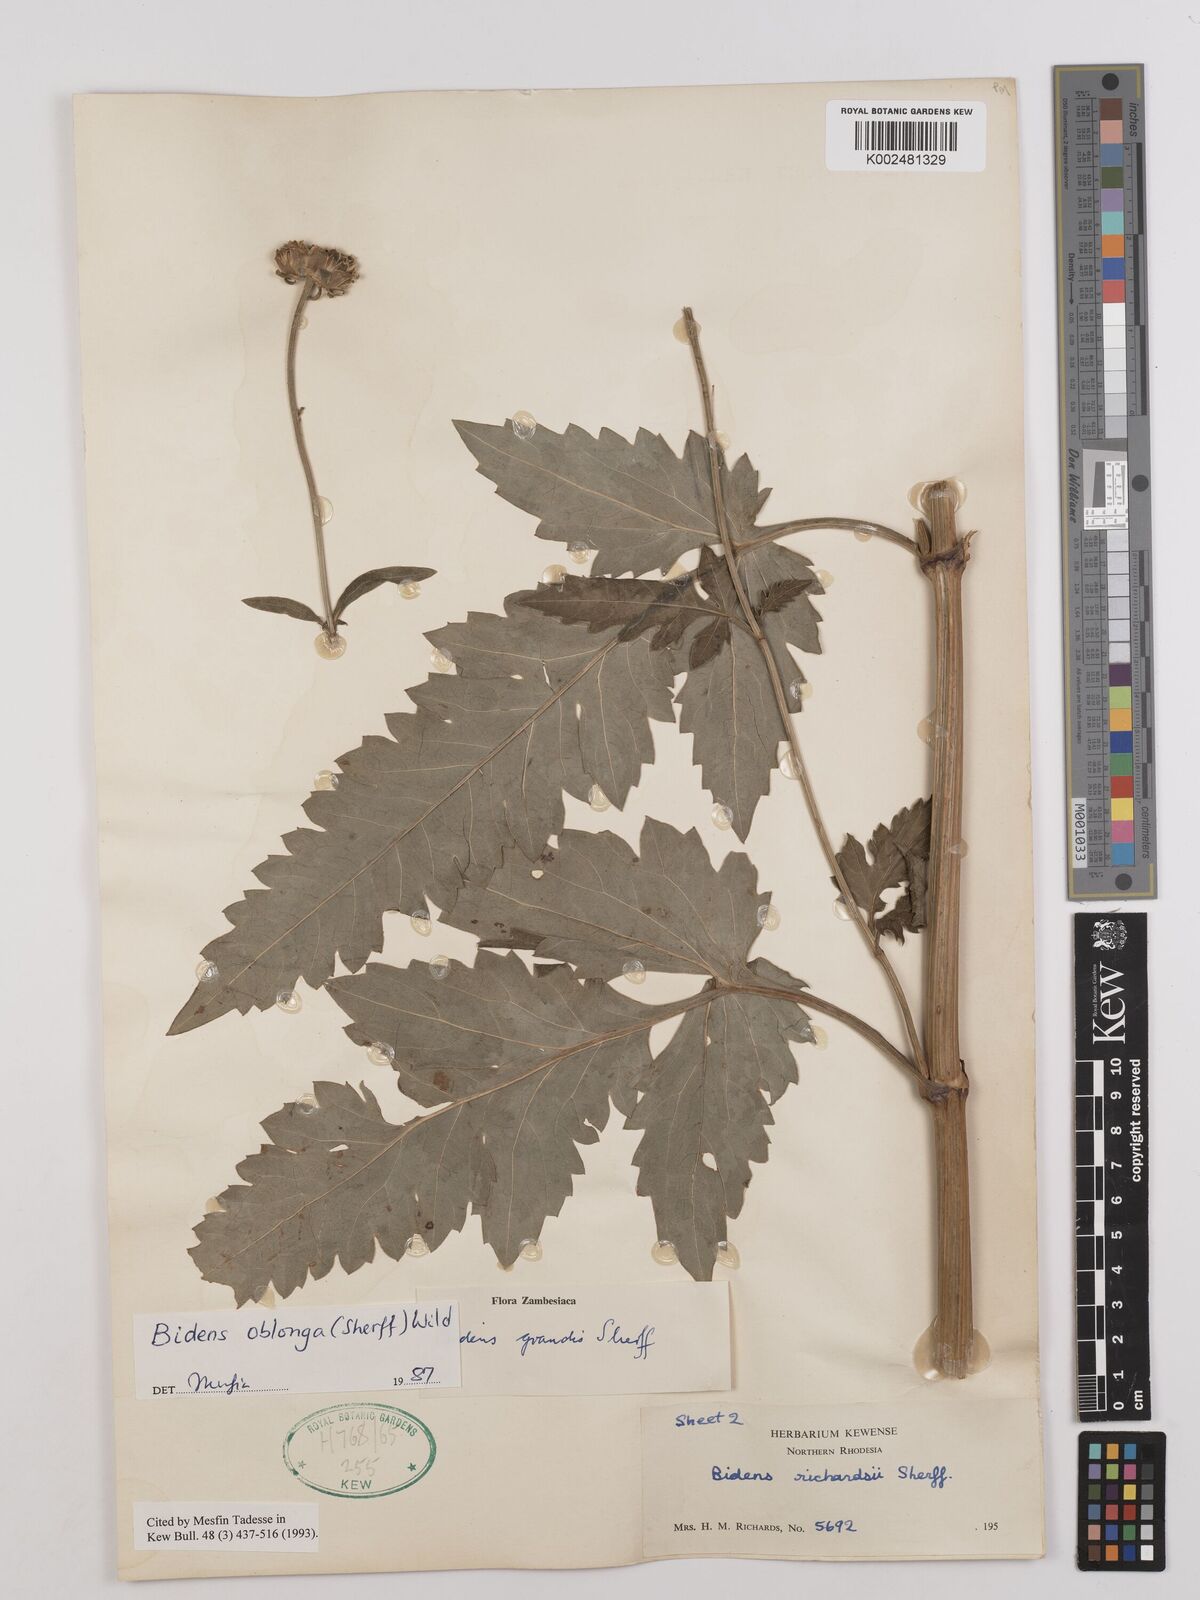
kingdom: Plantae
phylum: Tracheophyta
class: Magnoliopsida
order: Asterales
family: Asteraceae
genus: Bidens
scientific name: Bidens oblonga
